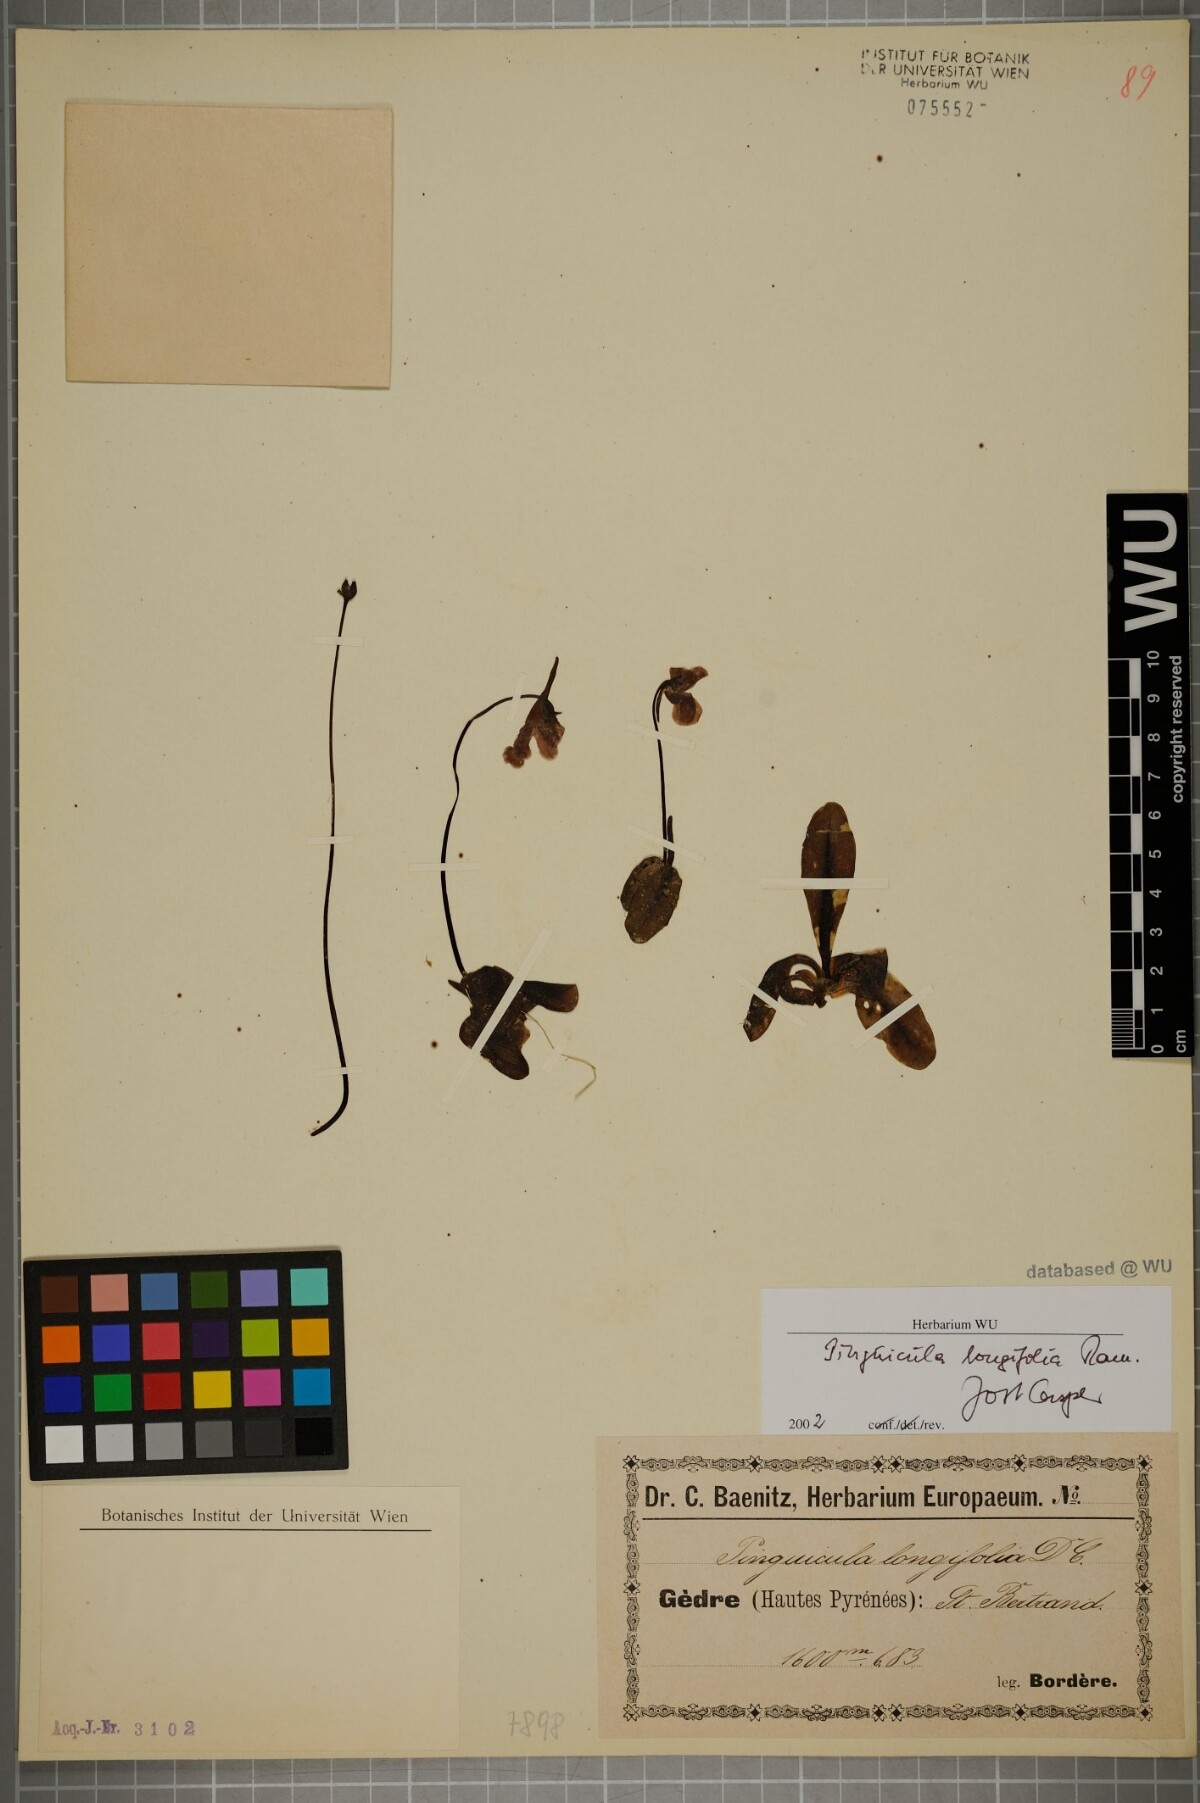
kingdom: Plantae
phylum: Tracheophyta
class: Magnoliopsida
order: Lamiales
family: Lentibulariaceae
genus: Pinguicula
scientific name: Pinguicula longifolia
